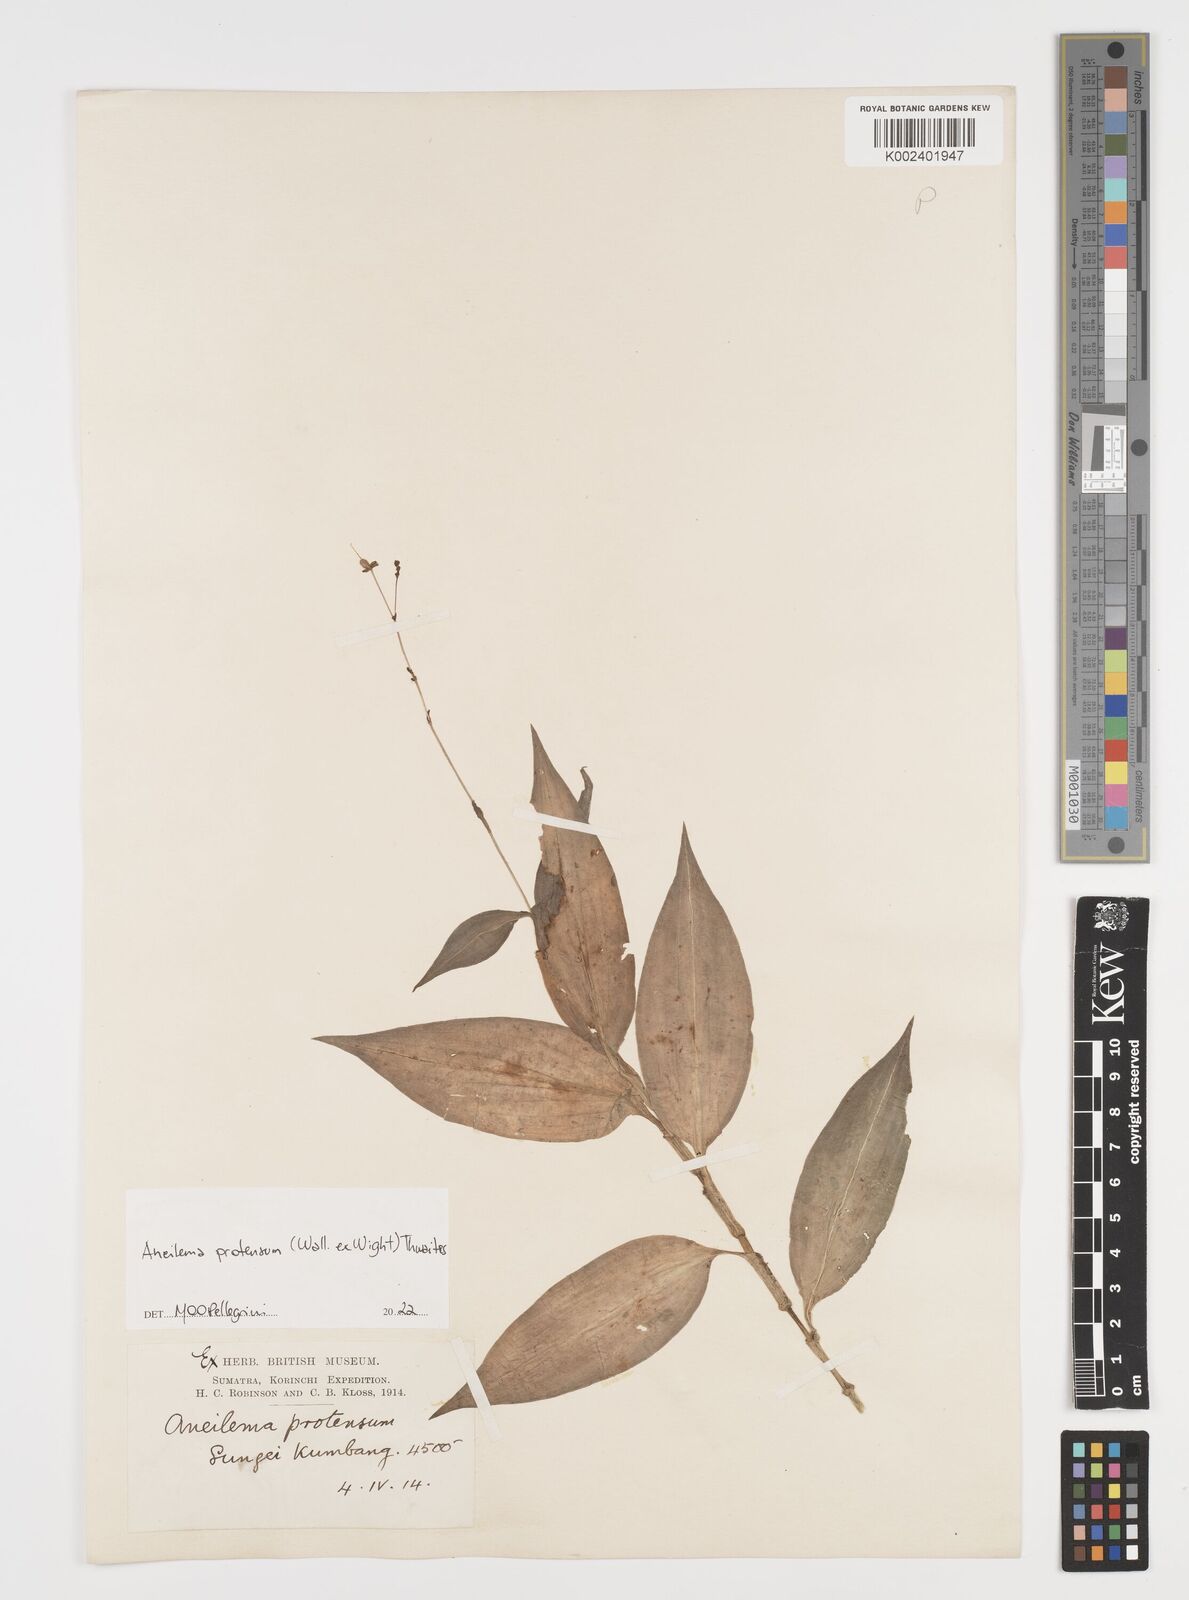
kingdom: Plantae
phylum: Tracheophyta
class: Liliopsida
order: Commelinales
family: Commelinaceae
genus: Rhopalephora
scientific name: Rhopalephora
